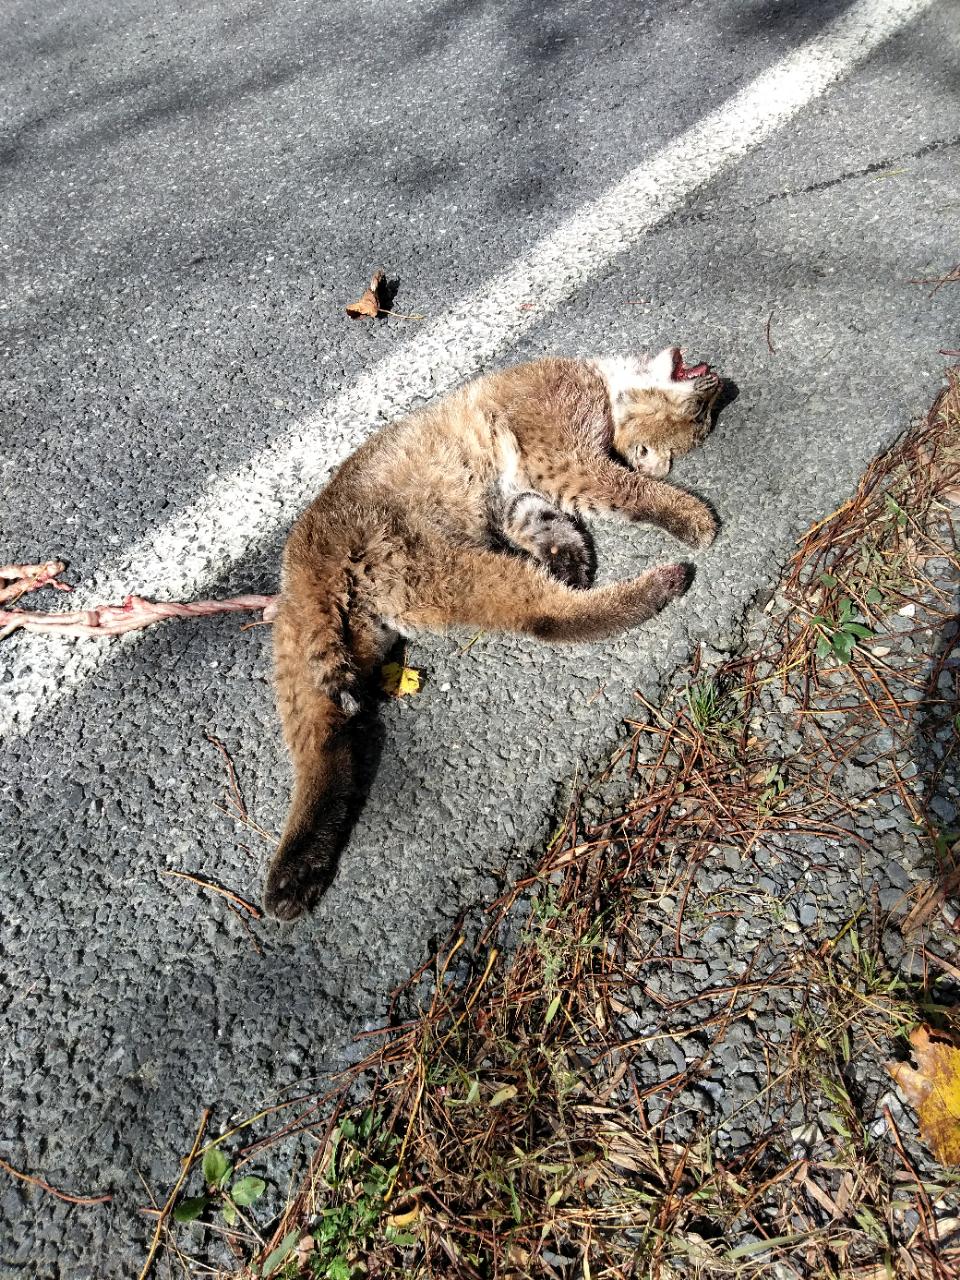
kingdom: Animalia
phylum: Chordata
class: Mammalia
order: Carnivora
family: Felidae
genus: Lynx
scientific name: Lynx rufus
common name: Bobcat
